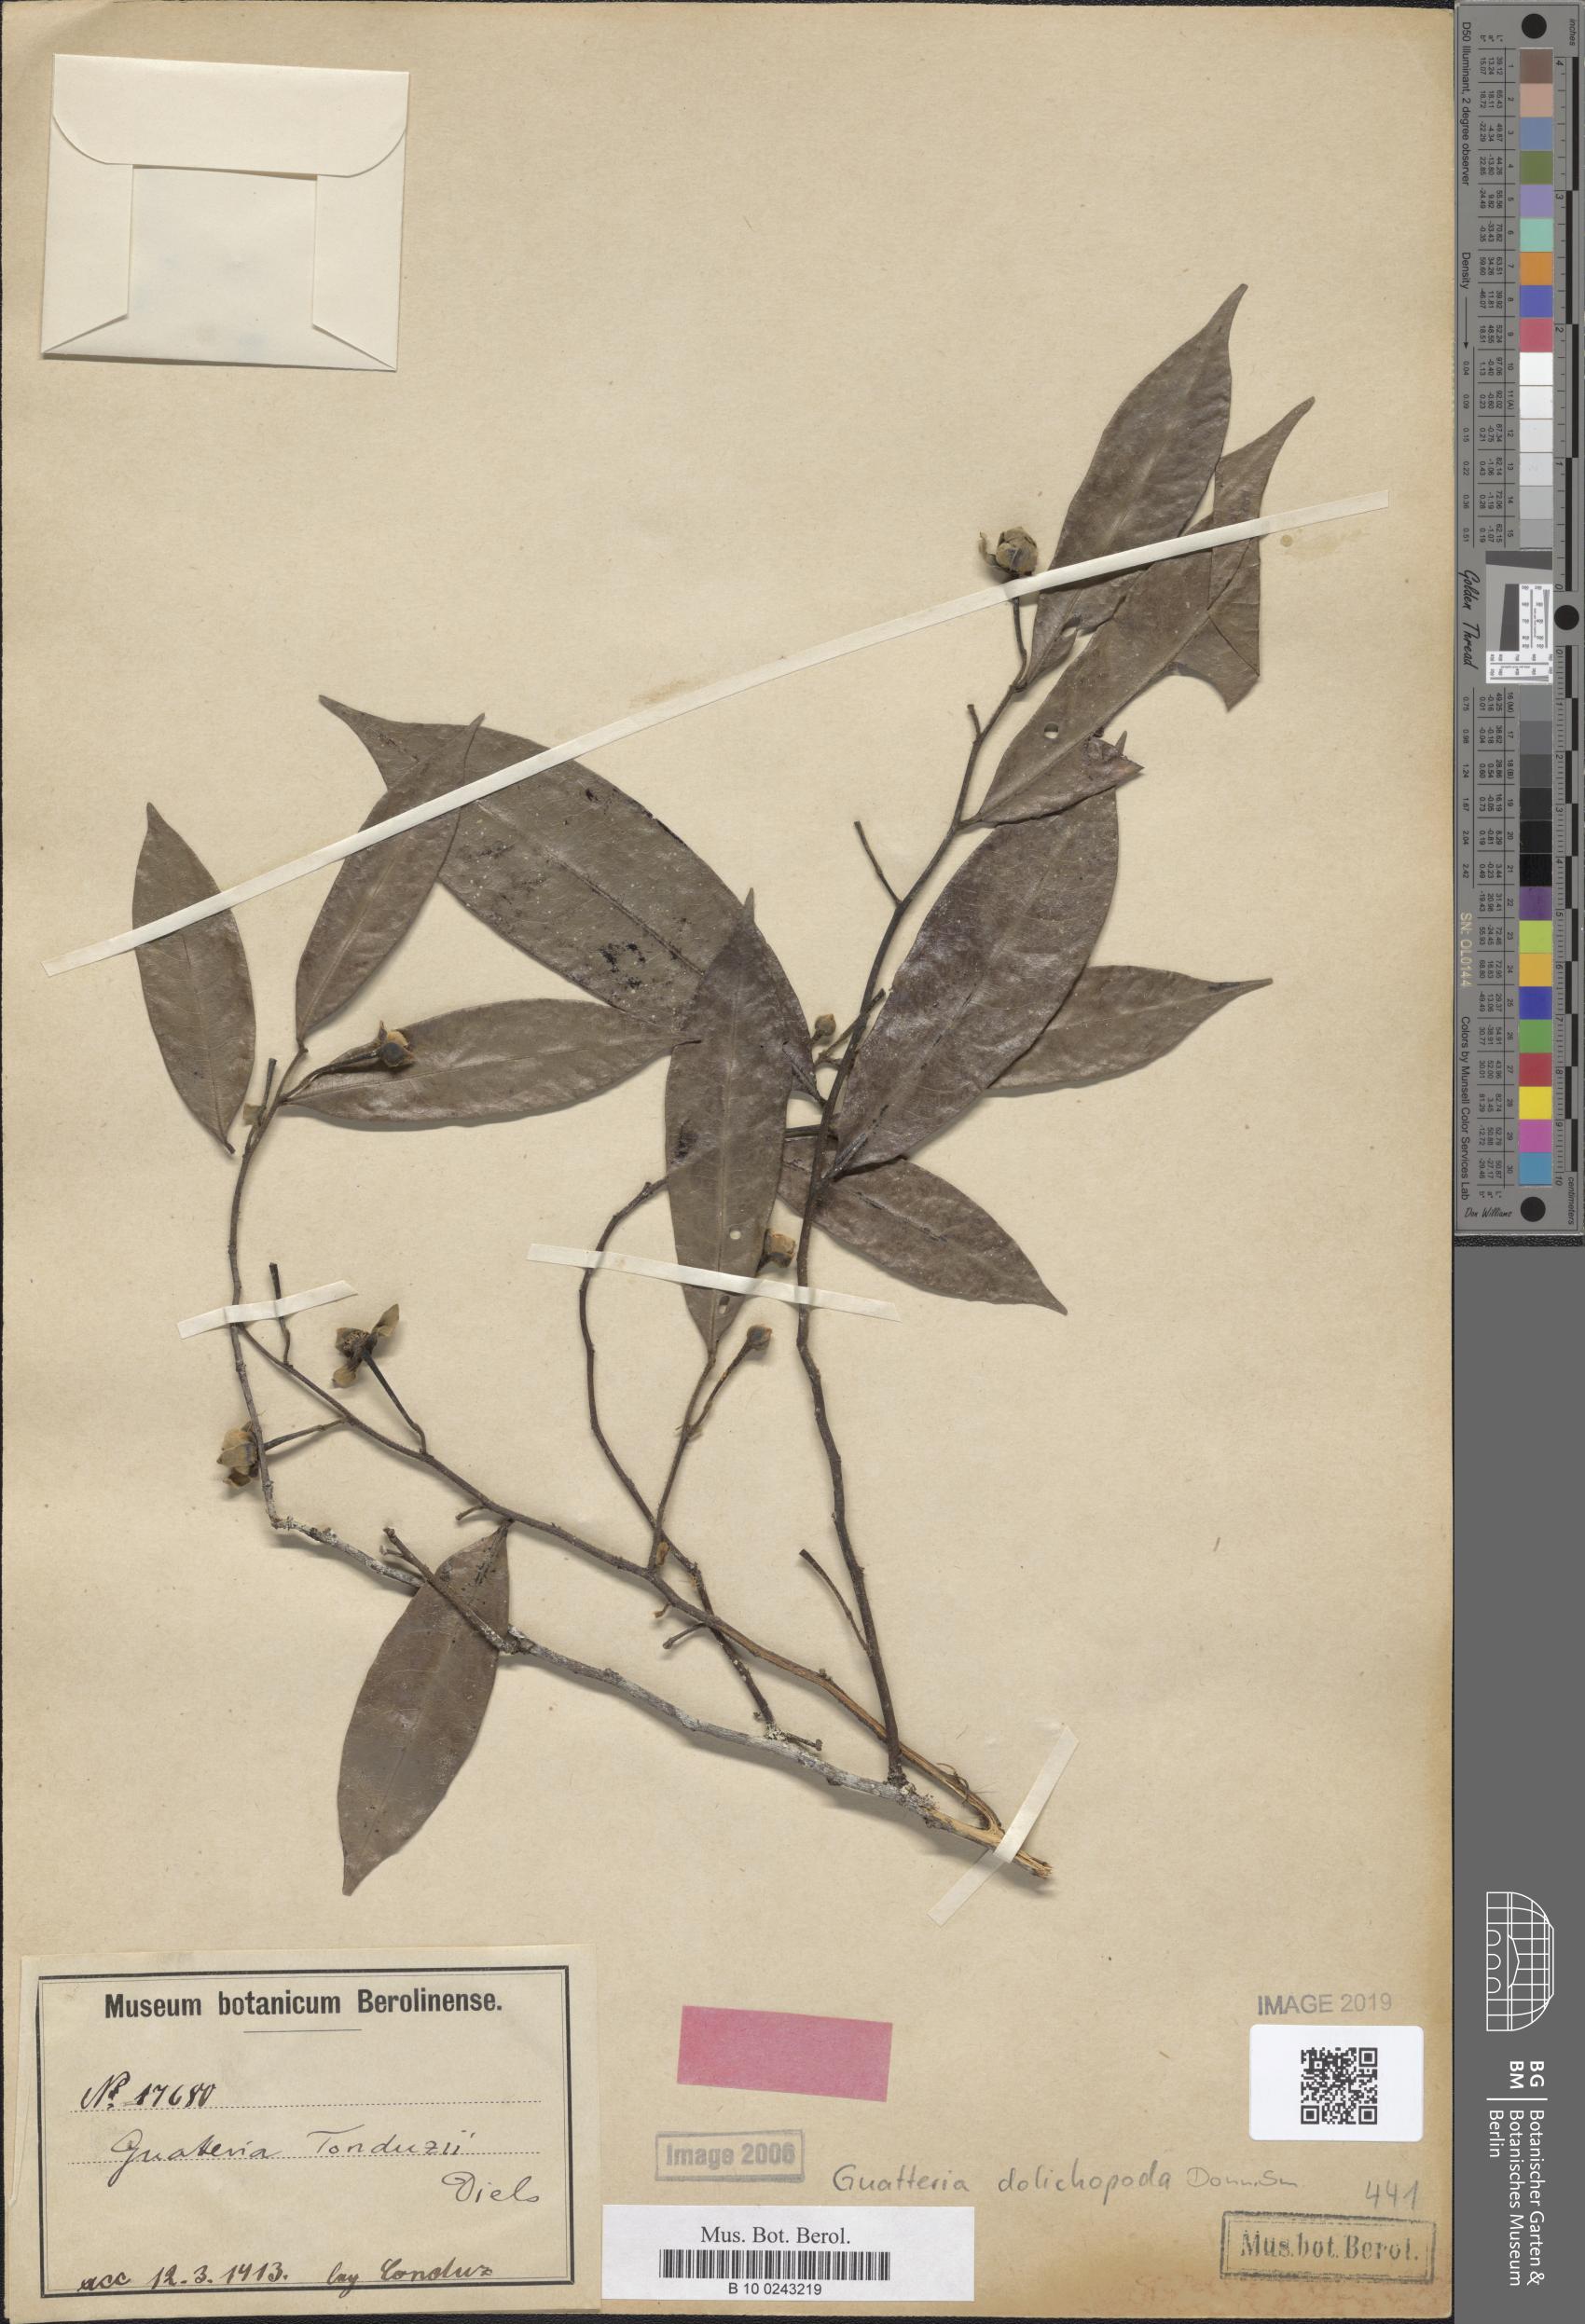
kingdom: Plantae
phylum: Tracheophyta
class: Magnoliopsida
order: Magnoliales
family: Annonaceae
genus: Guatteria
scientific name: Guatteria tonduzii
